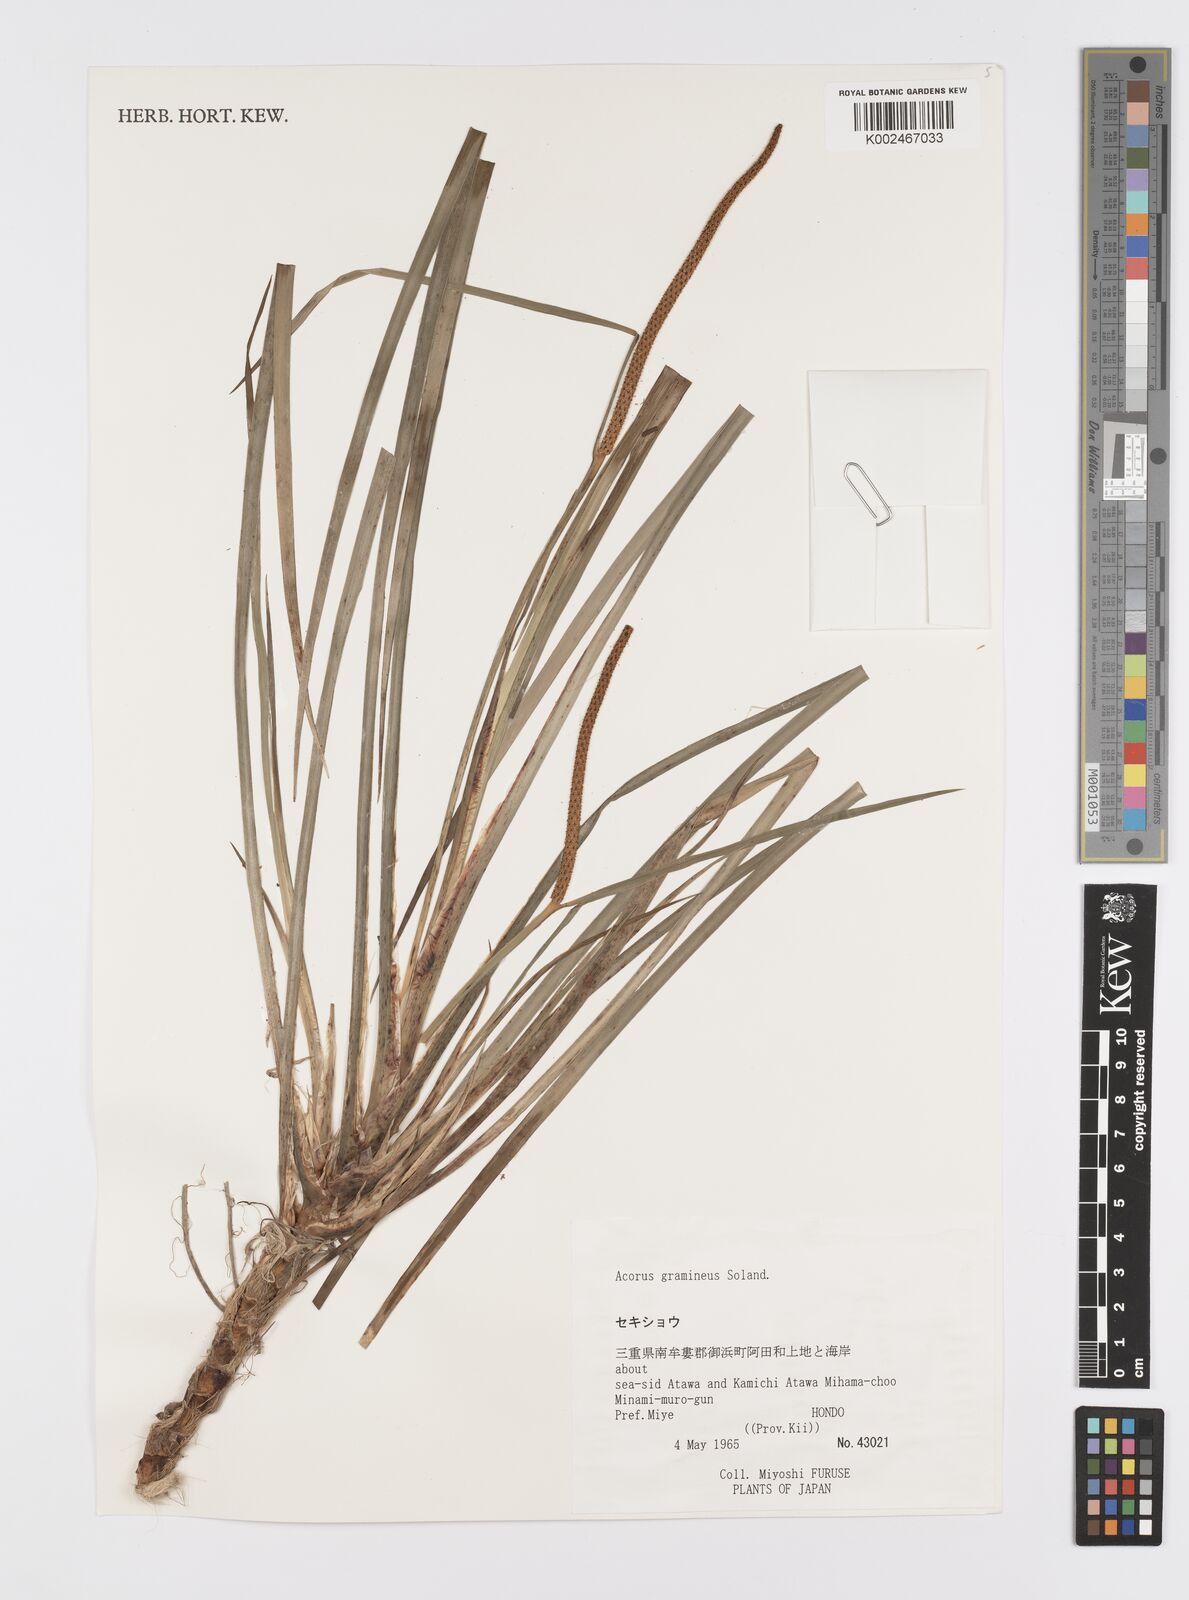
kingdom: Plantae
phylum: Tracheophyta
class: Liliopsida
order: Acorales
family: Acoraceae
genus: Acorus
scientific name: Acorus gramineus
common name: Slender sweet-flag
